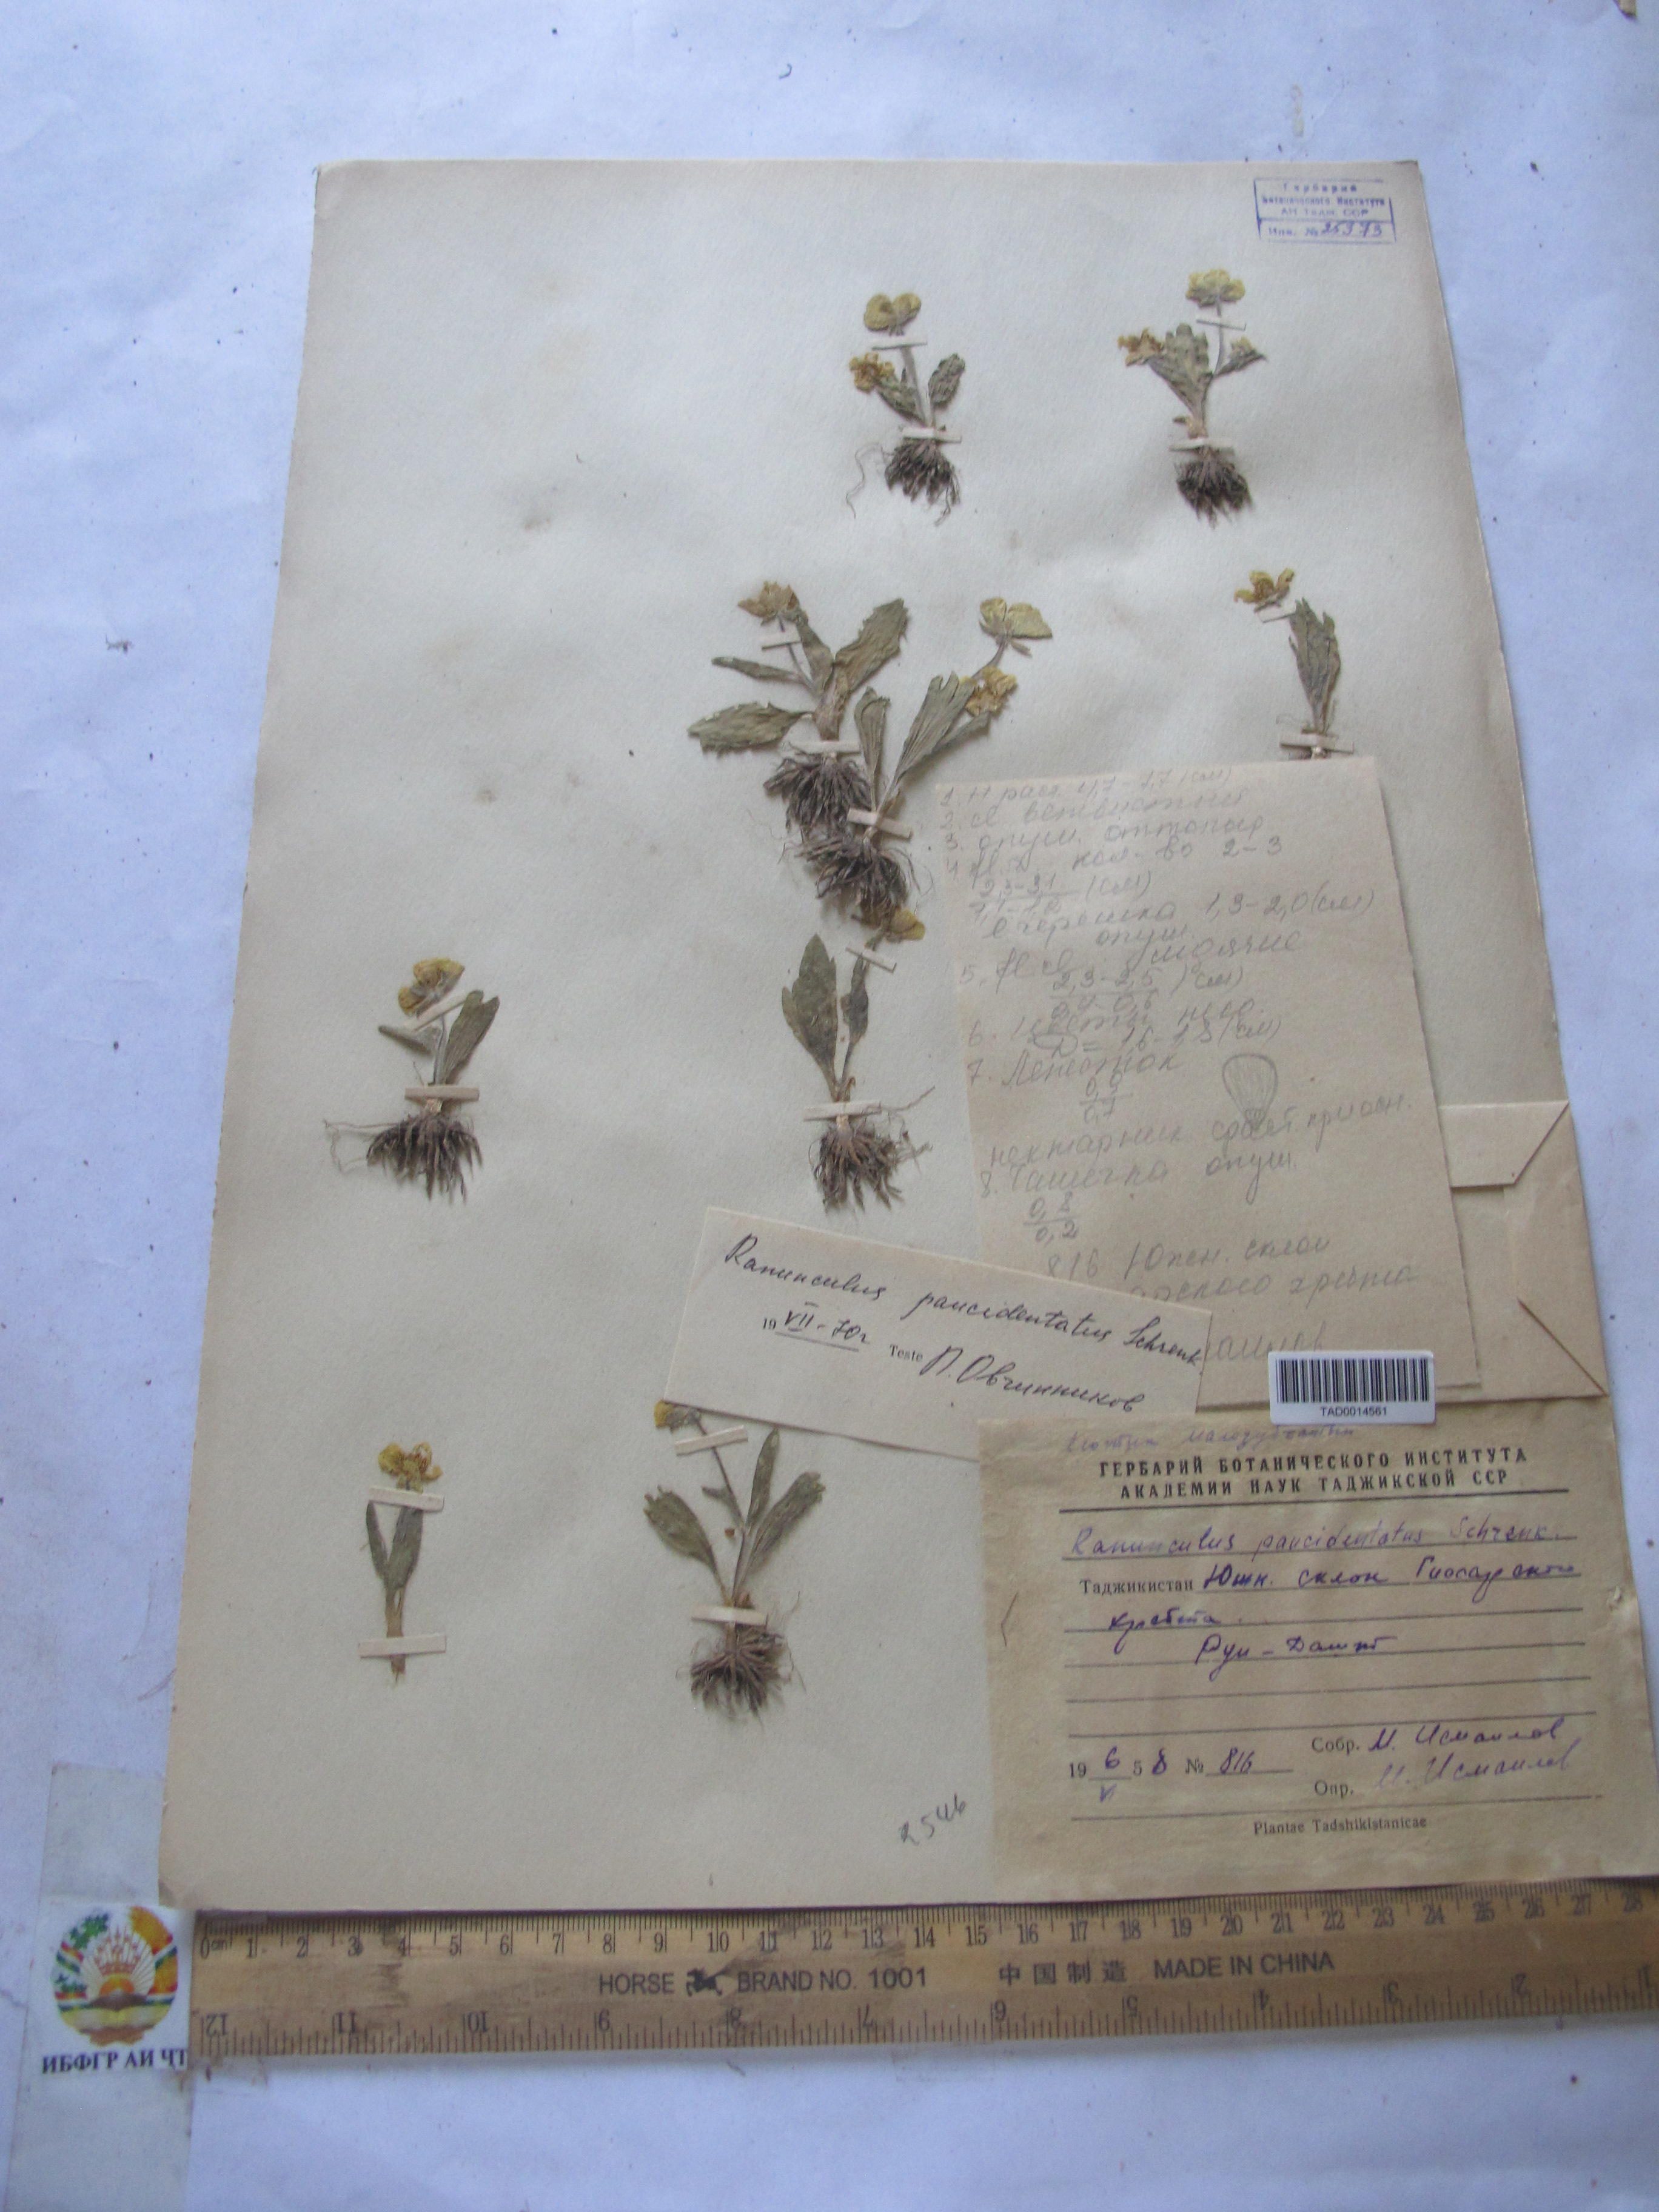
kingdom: Plantae
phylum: Tracheophyta
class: Magnoliopsida
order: Ranunculales
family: Ranunculaceae
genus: Ranunculus
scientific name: Ranunculus
